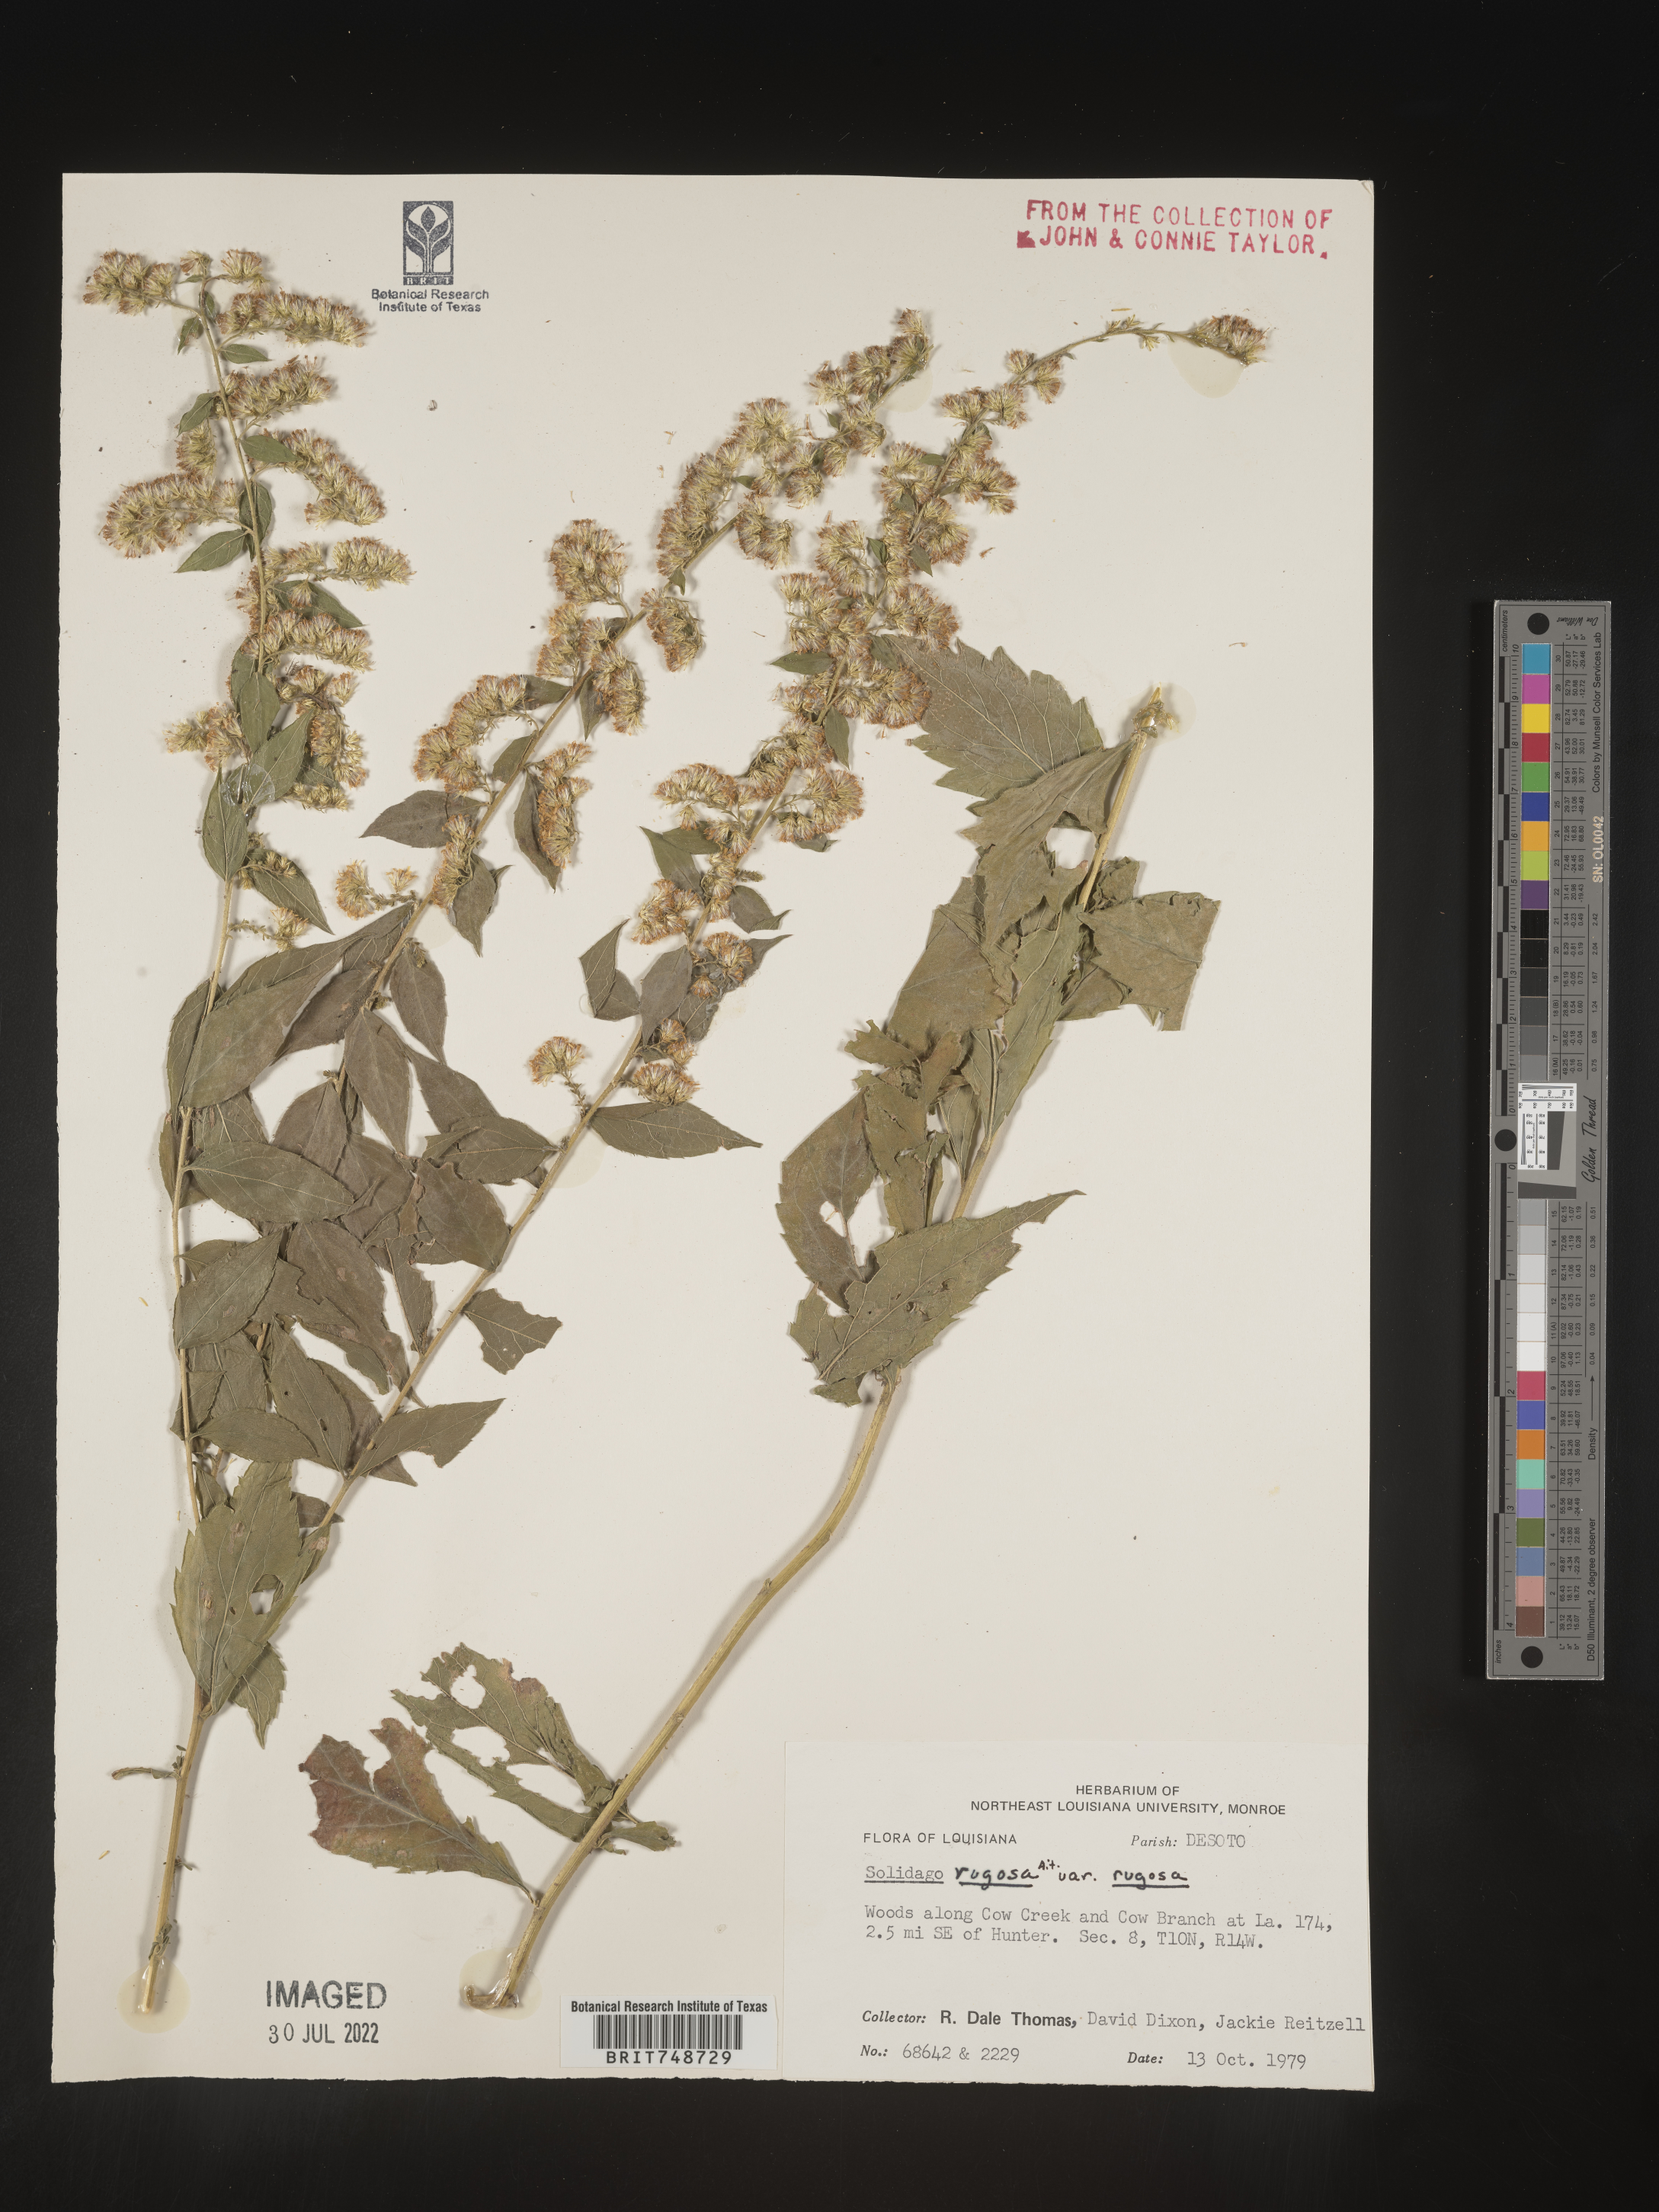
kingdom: Plantae
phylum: Tracheophyta
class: Magnoliopsida
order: Asterales
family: Asteraceae
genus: Solidago
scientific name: Solidago rugosa
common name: Rough-stemmed goldenrod
